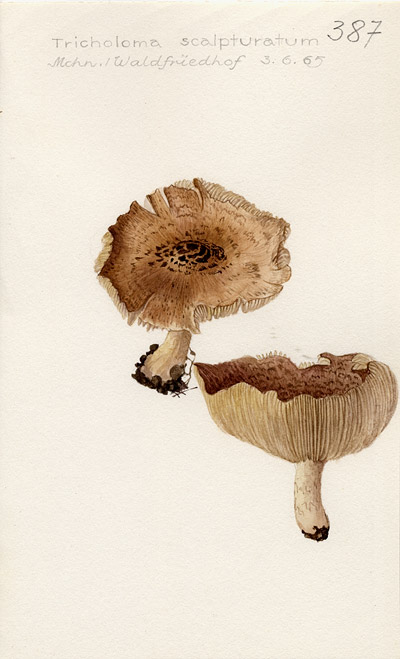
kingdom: Fungi
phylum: Basidiomycota
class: Agaricomycetes
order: Agaricales
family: Tricholomataceae
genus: Tricholoma
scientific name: Tricholoma scalpturatum
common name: Yellowing knight
